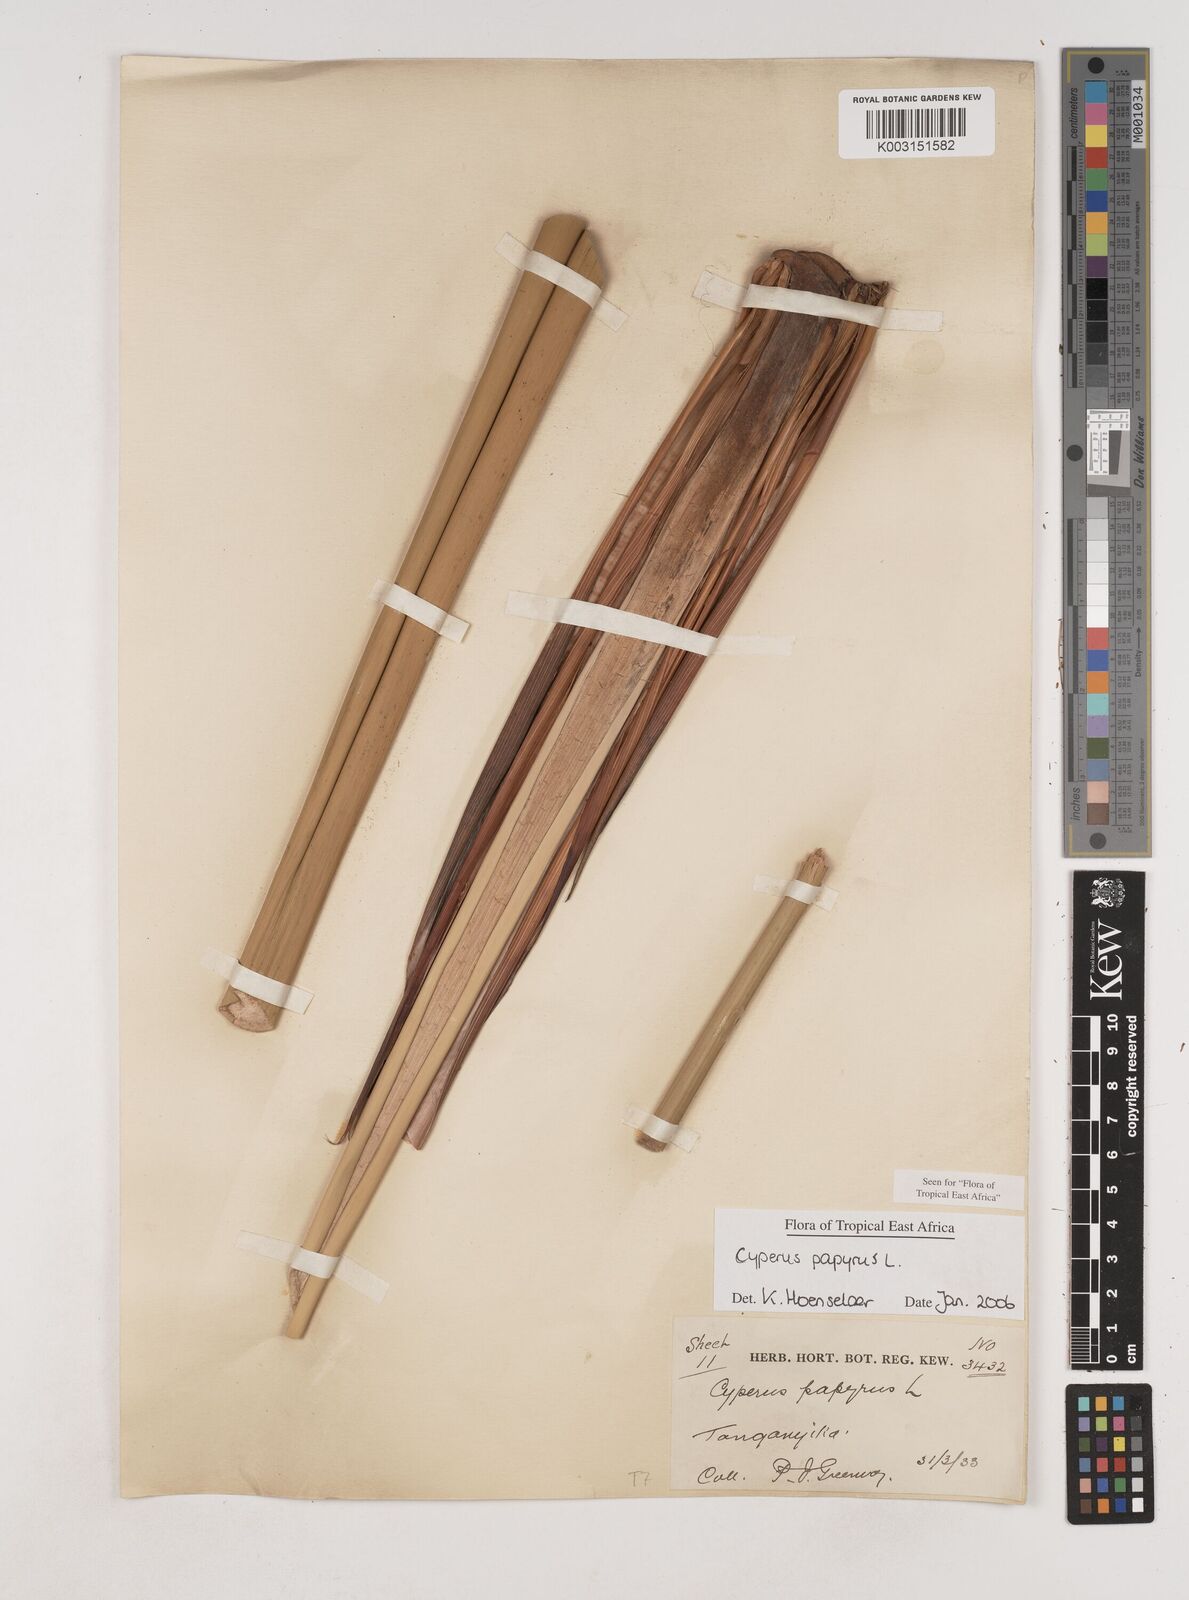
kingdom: Plantae
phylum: Tracheophyta
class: Liliopsida
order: Poales
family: Cyperaceae
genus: Cyperus
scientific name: Cyperus papyrus
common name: Papyrus
